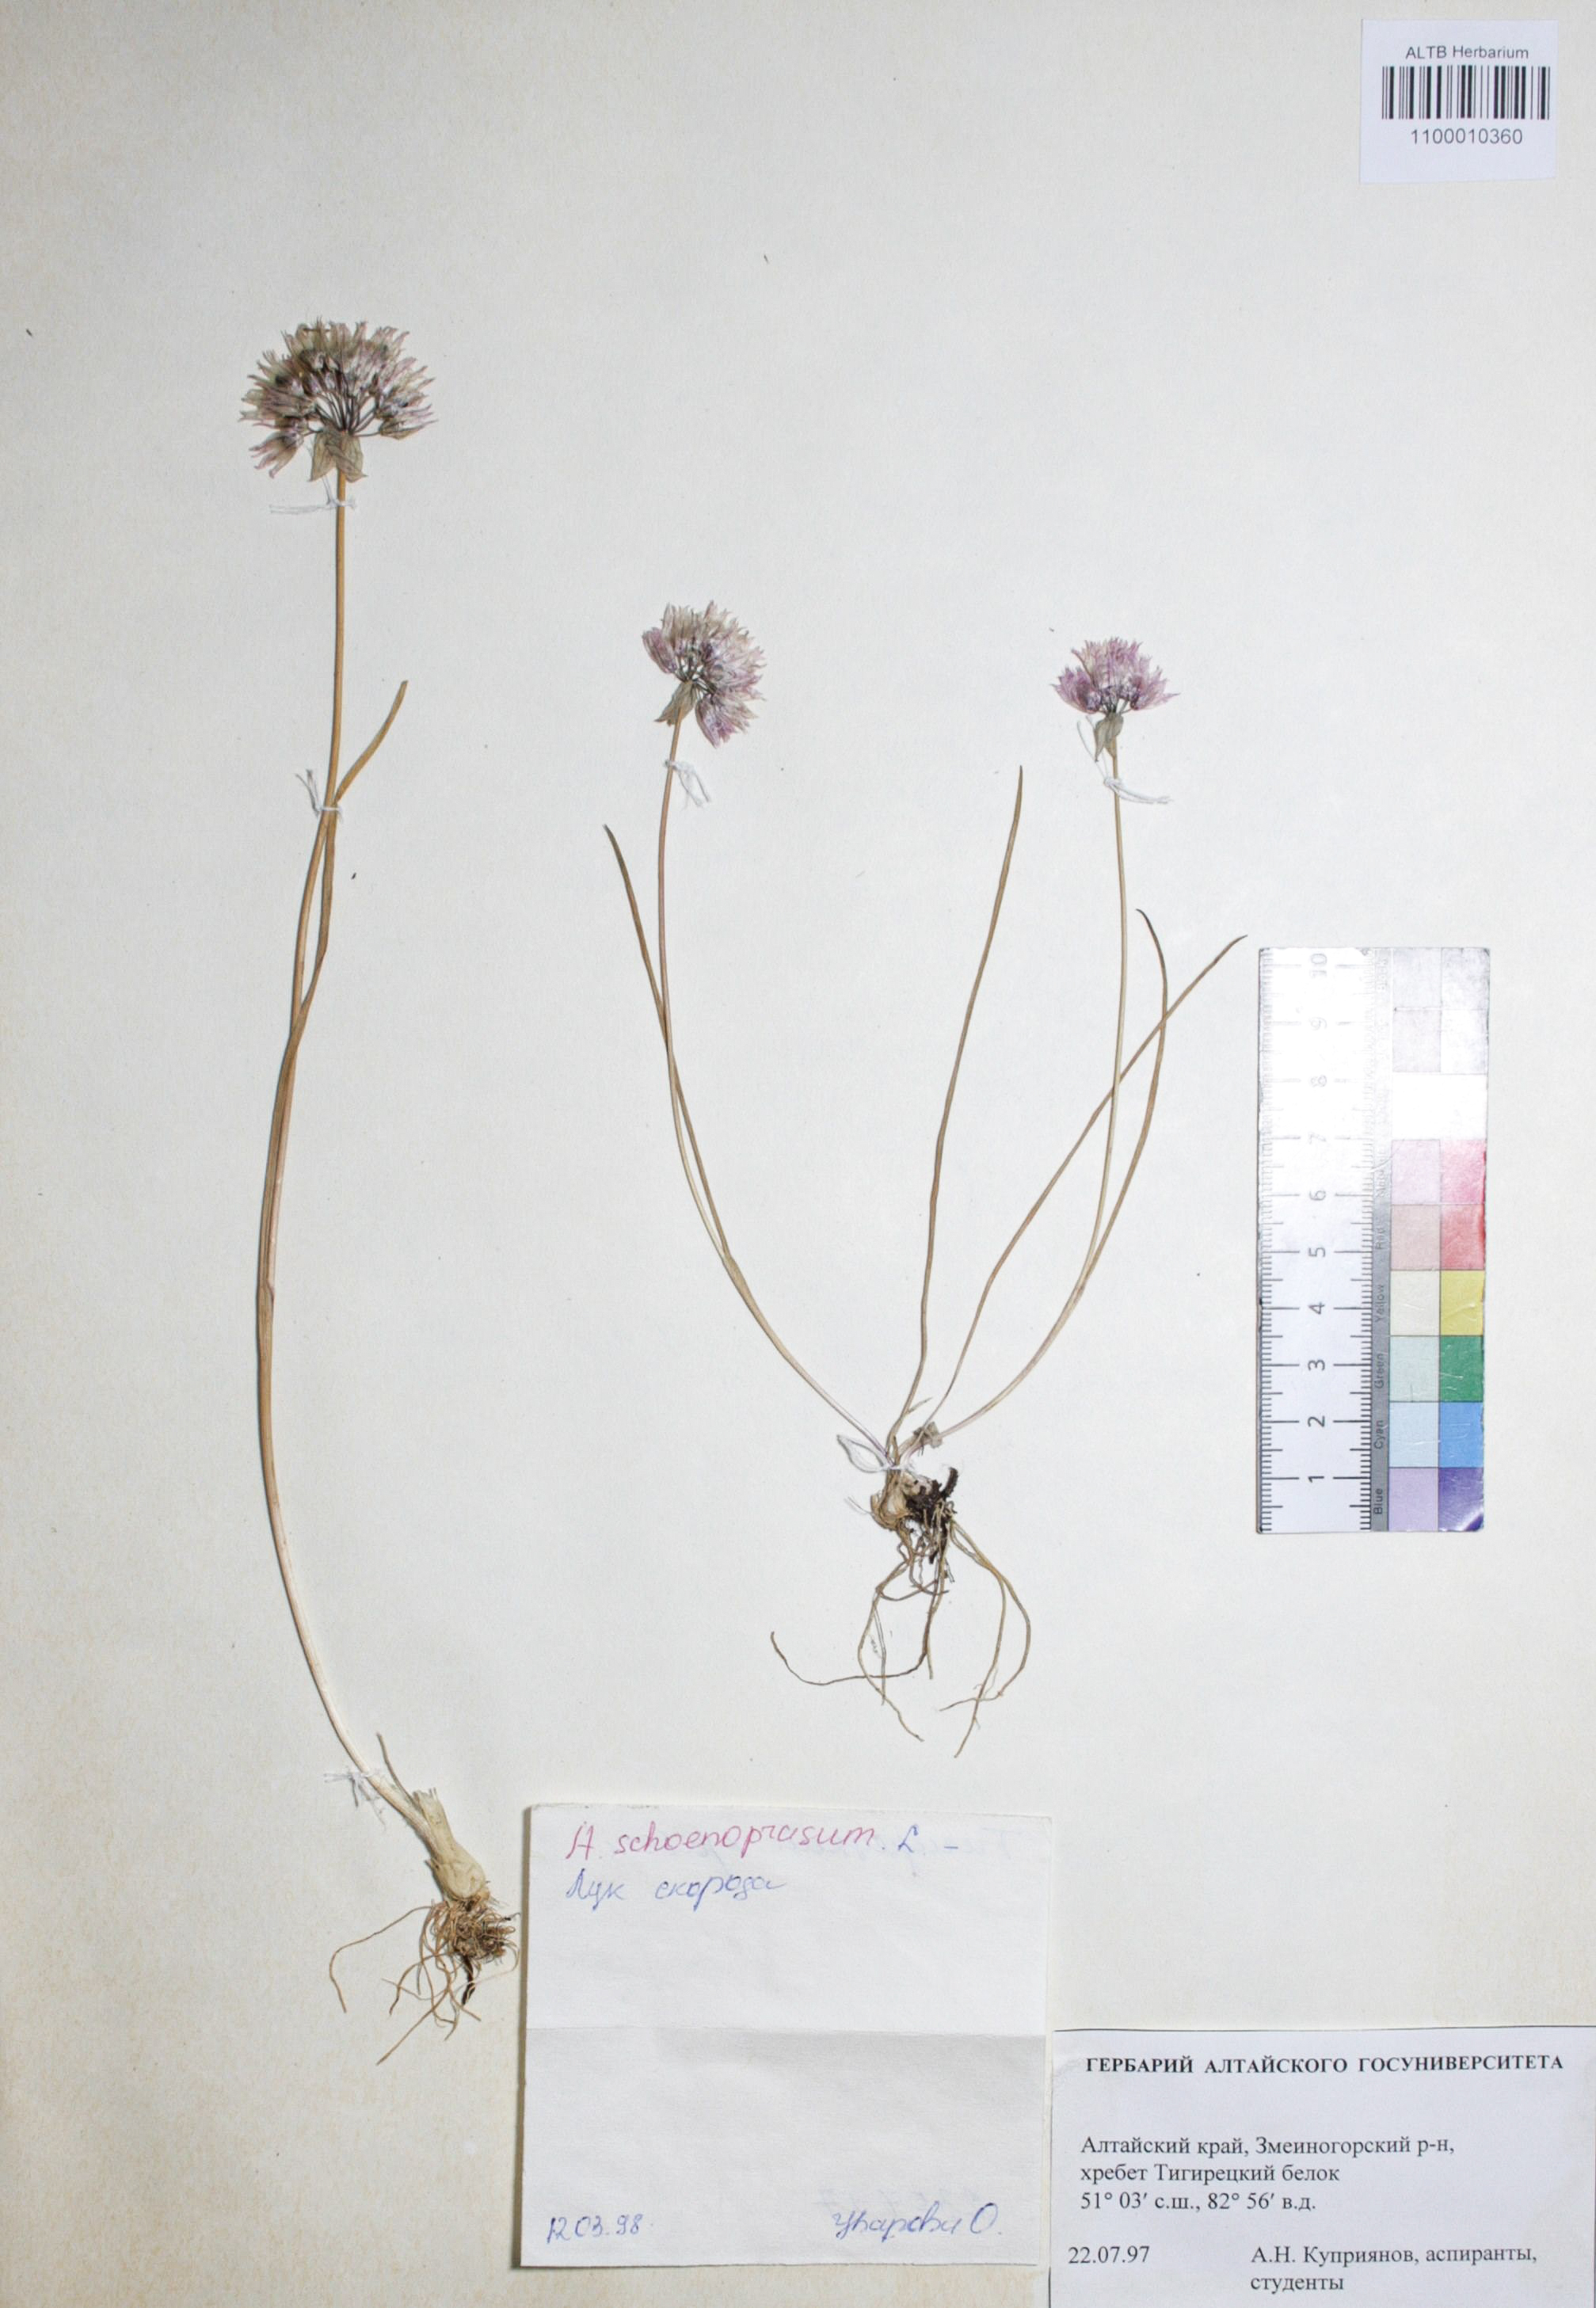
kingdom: Plantae
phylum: Tracheophyta
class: Liliopsida
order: Asparagales
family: Amaryllidaceae
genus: Allium
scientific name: Allium schoenoprasum
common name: Chives
